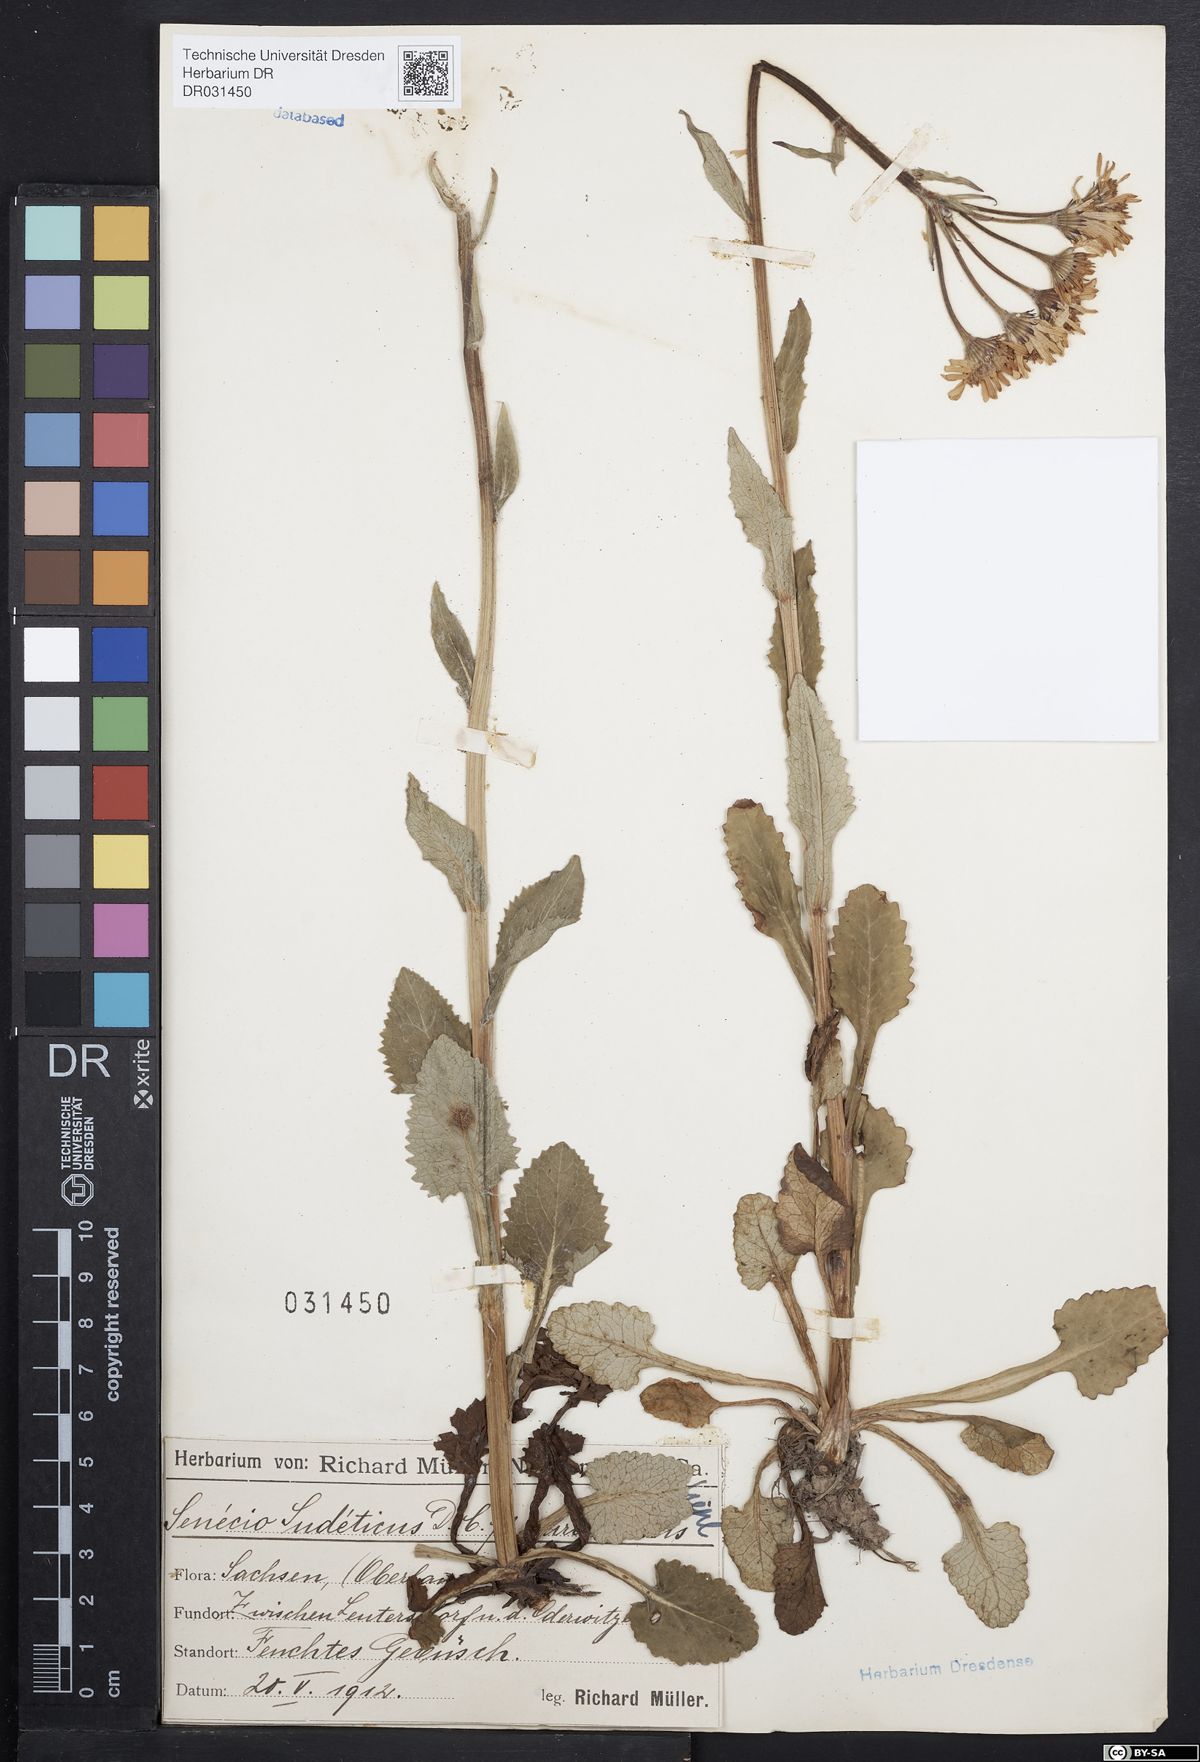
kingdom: Plantae
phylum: Tracheophyta
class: Magnoliopsida
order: Asterales
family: Asteraceae
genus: Tephroseris
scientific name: Tephroseris crispa
